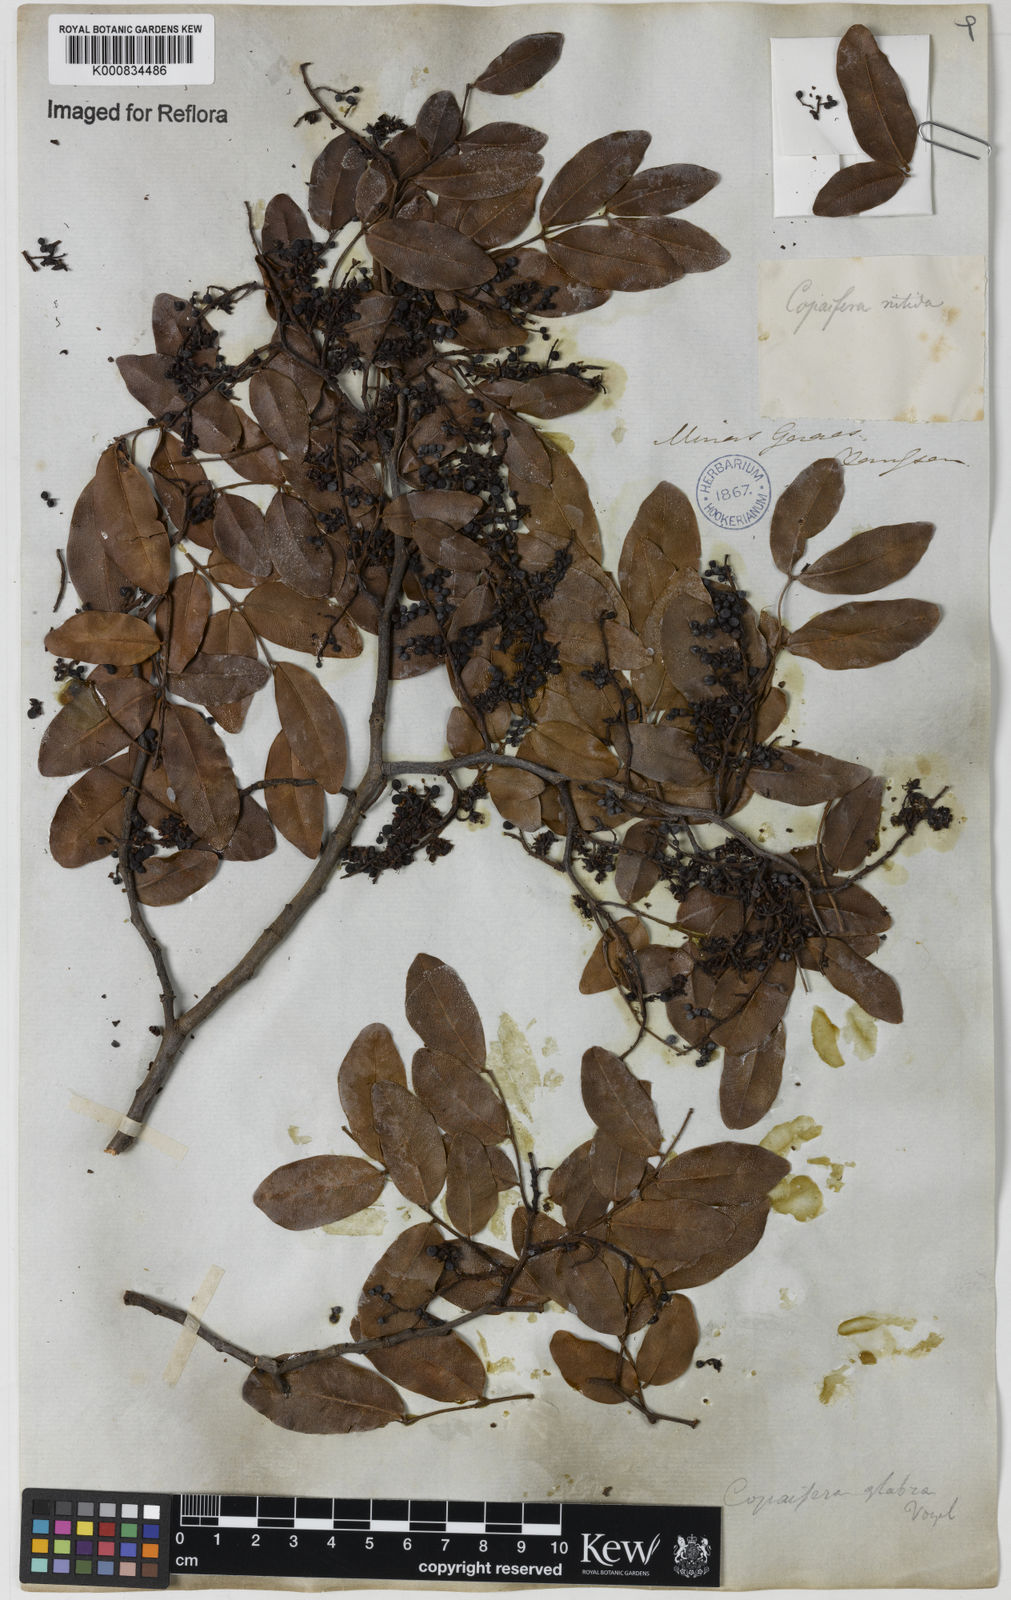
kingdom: Plantae
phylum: Tracheophyta
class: Magnoliopsida
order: Fabales
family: Fabaceae
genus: Copaifera
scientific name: Copaifera langsdorffii
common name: Brazilian diesel tree
